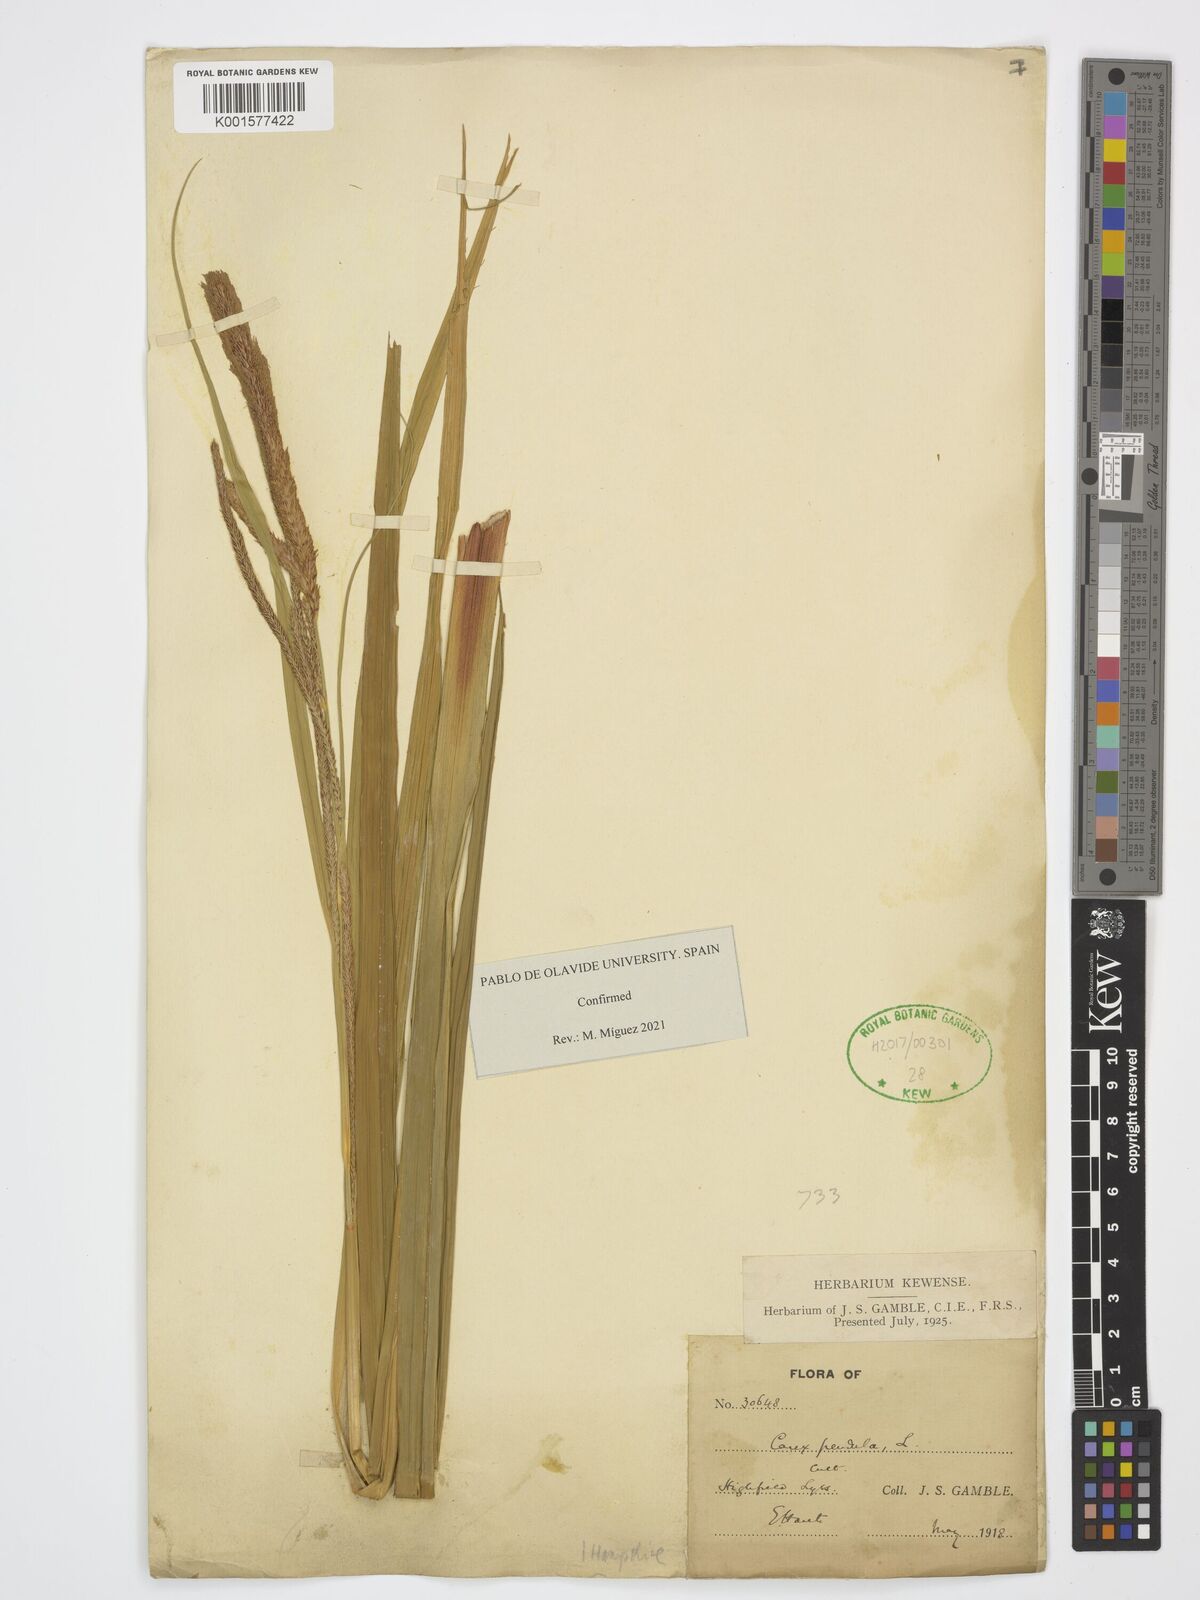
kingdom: Plantae
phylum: Tracheophyta
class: Liliopsida
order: Poales
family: Cyperaceae
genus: Carex
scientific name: Carex pendula
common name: Pendulous sedge
